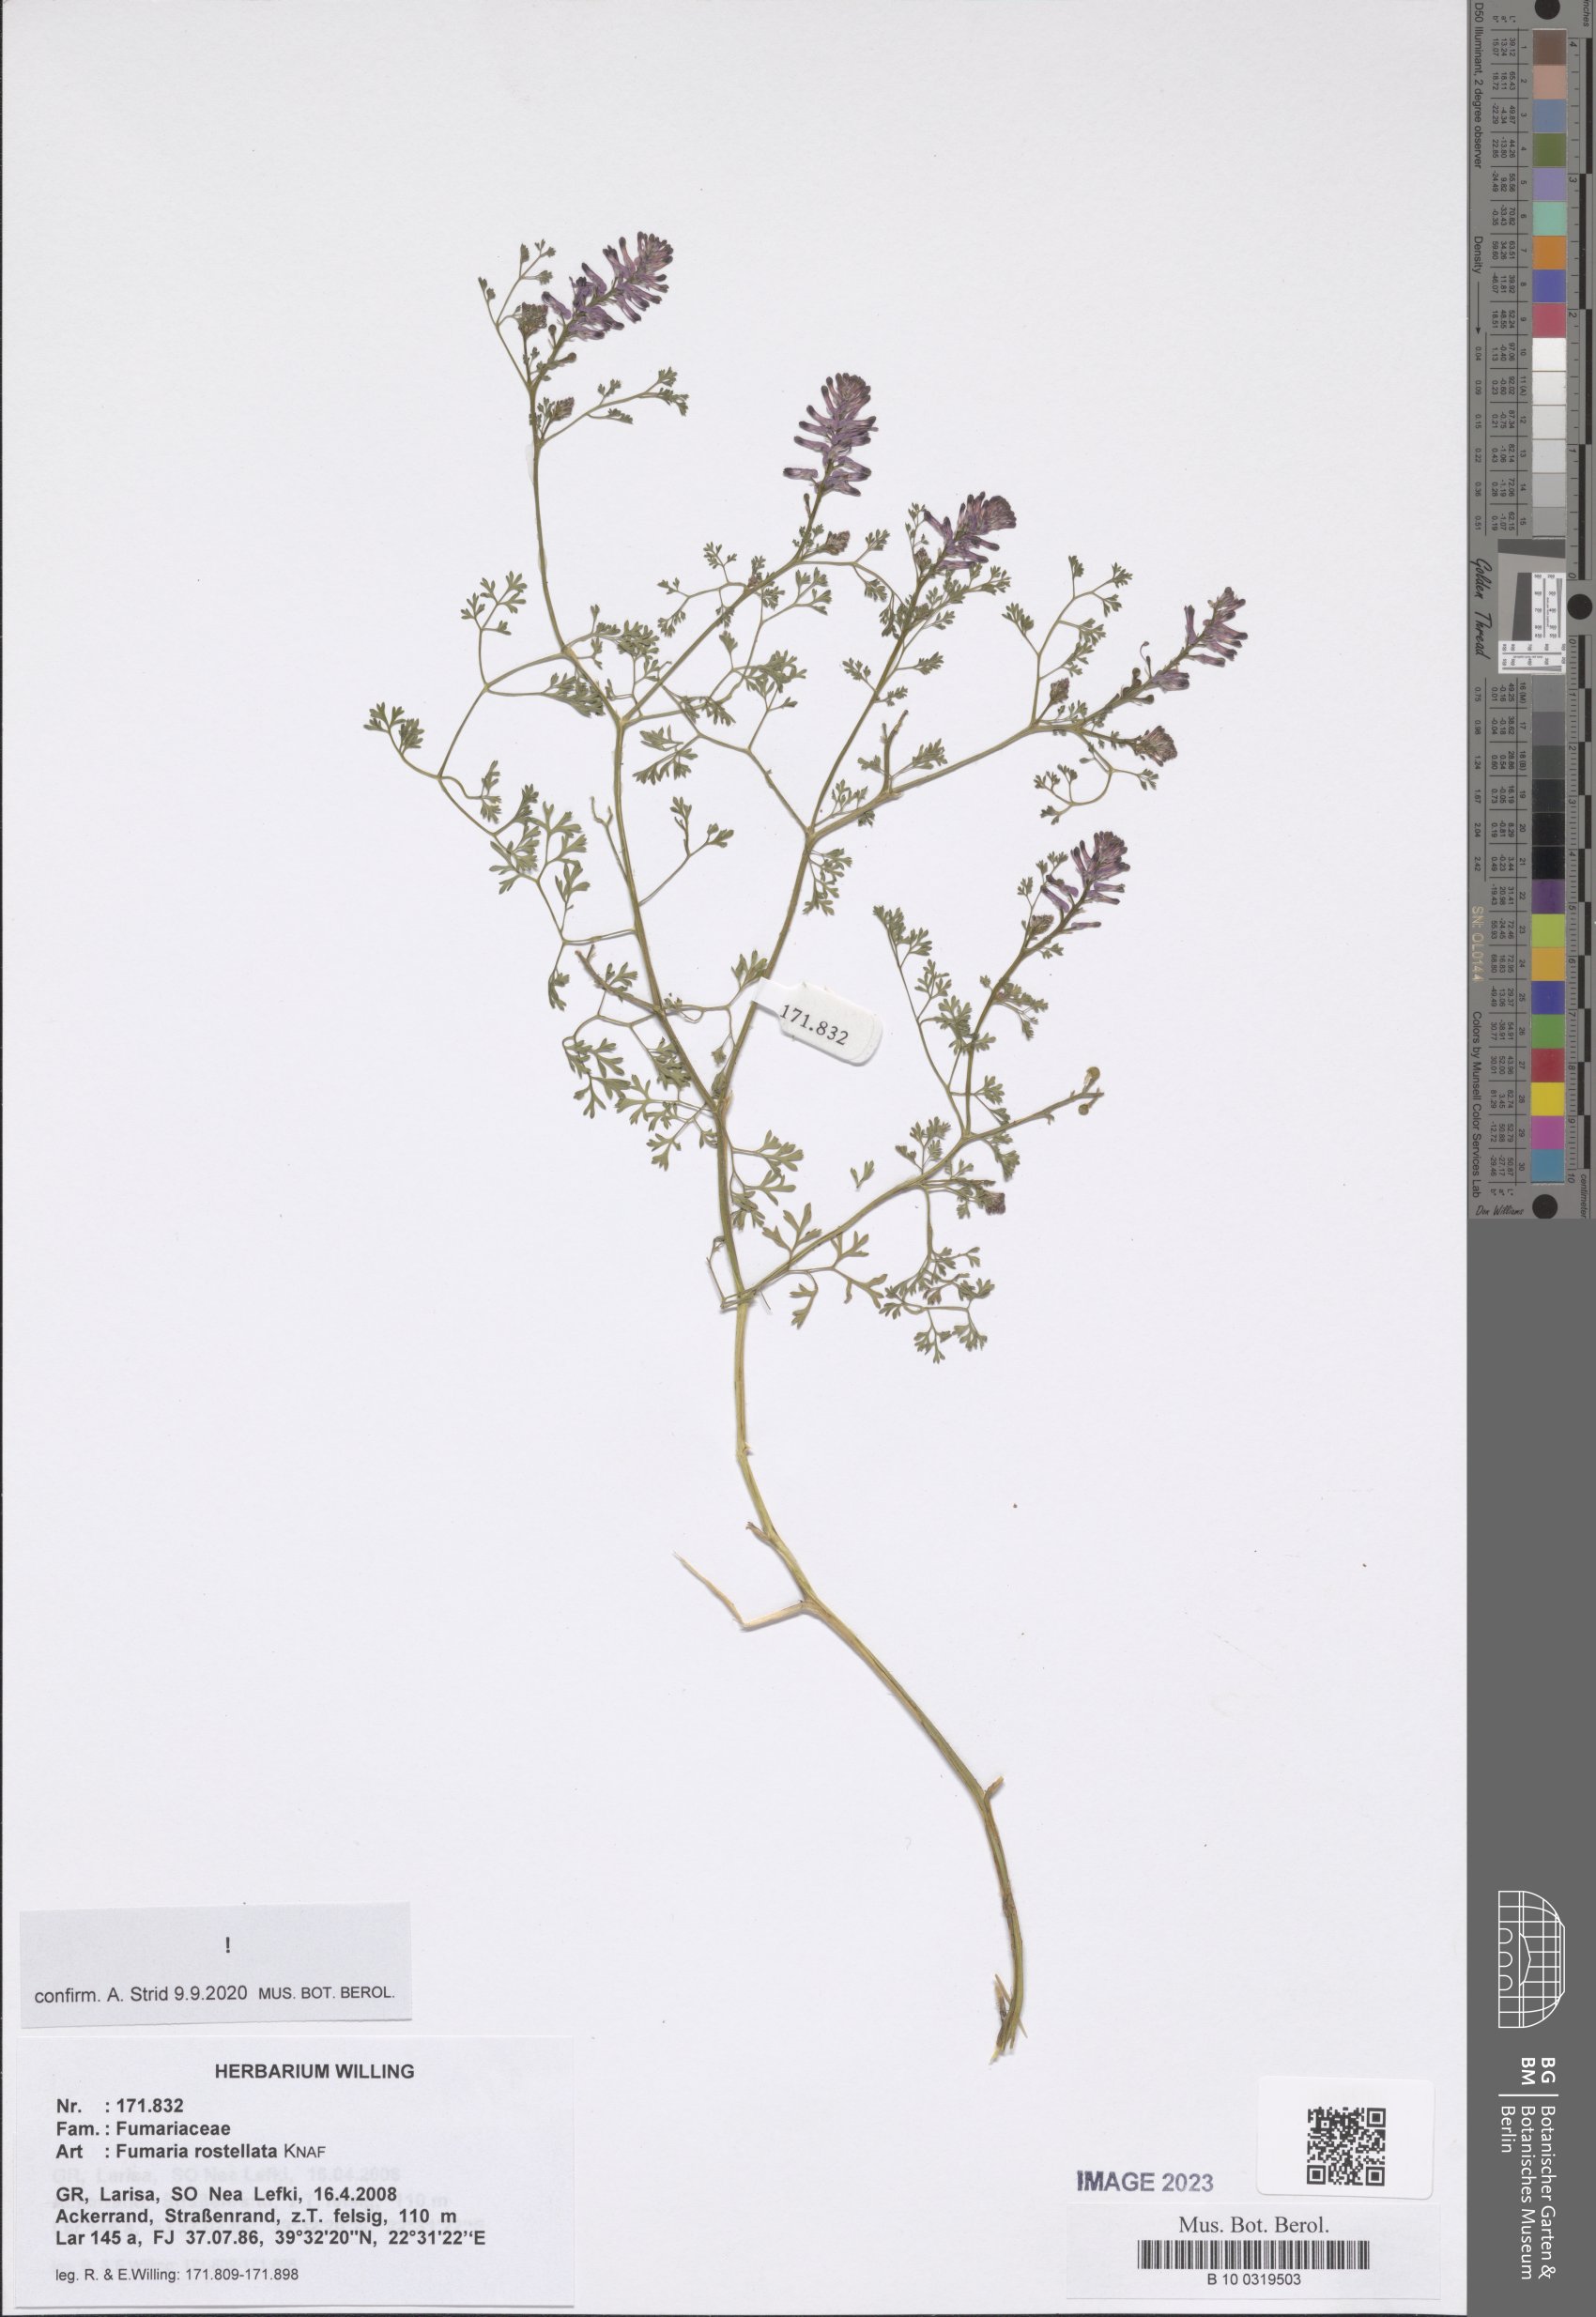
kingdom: Plantae
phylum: Tracheophyta
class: Magnoliopsida
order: Ranunculales
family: Papaveraceae
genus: Fumaria
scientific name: Fumaria rostellata
